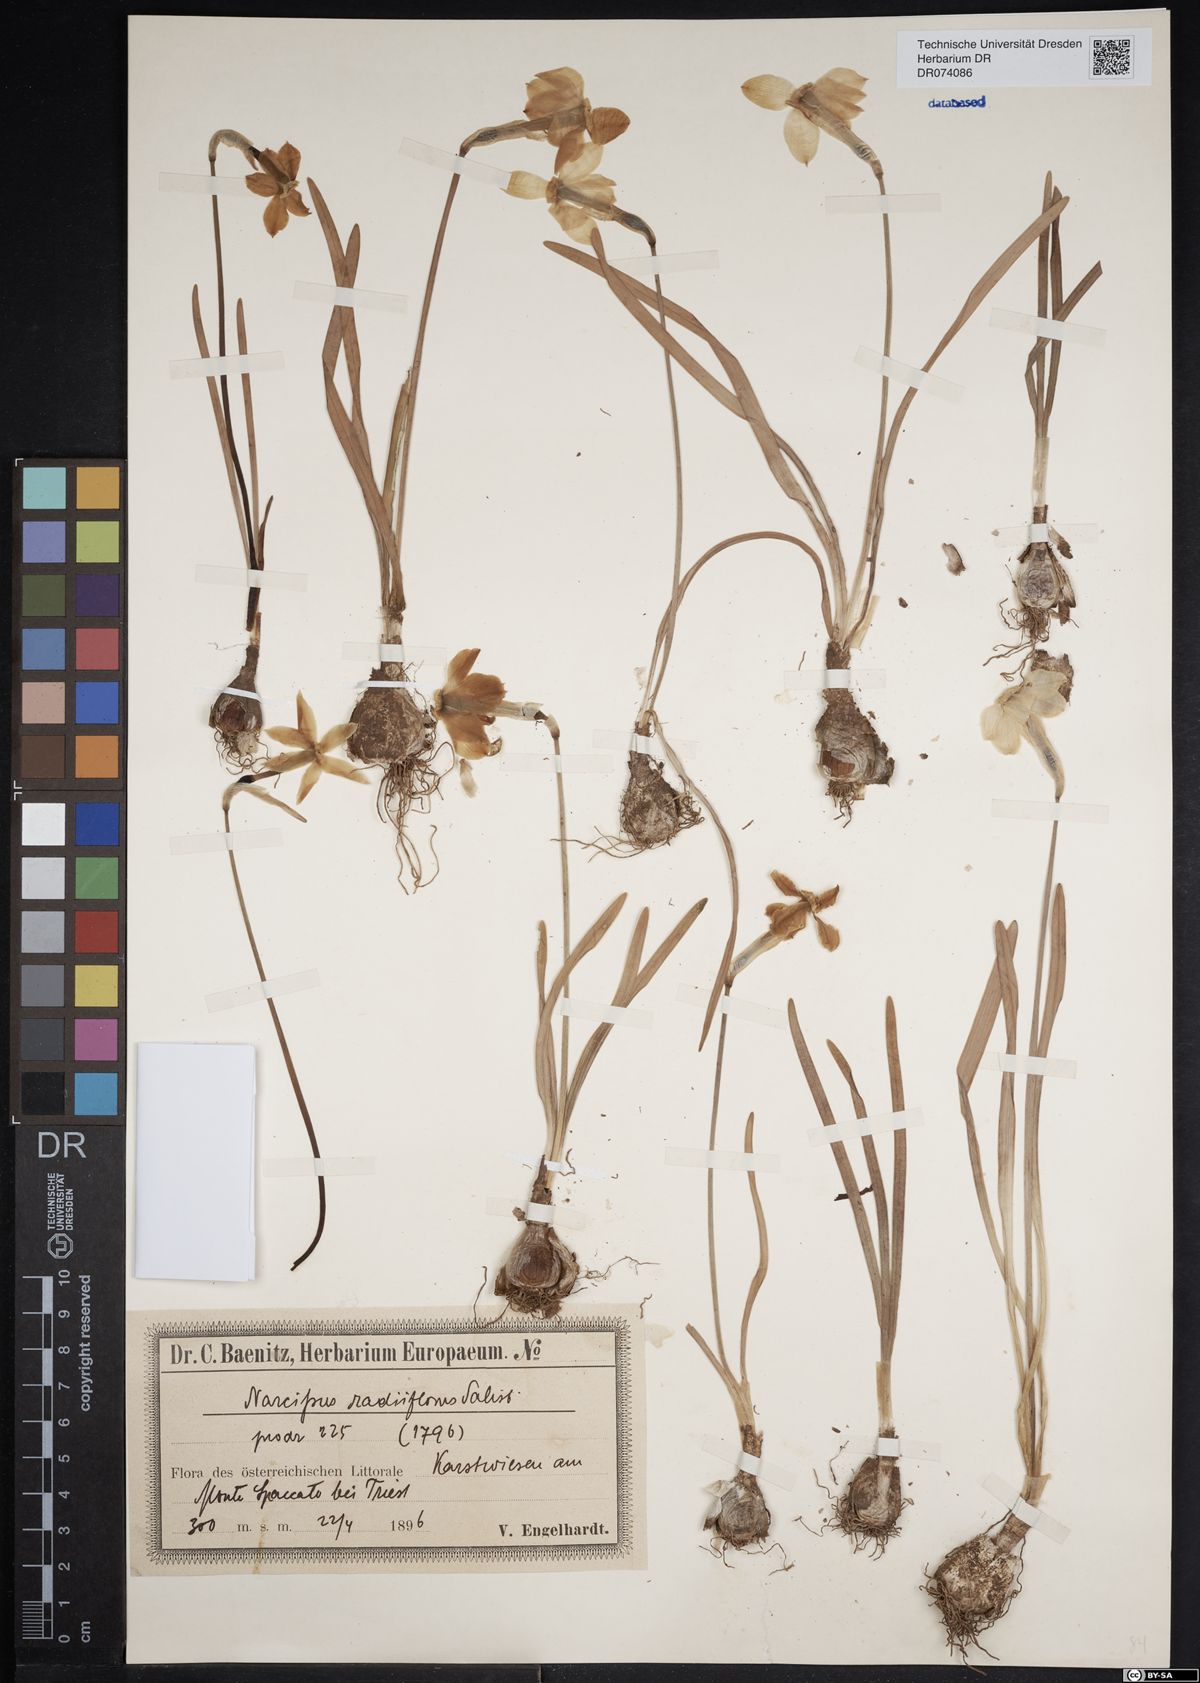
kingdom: Plantae
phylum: Tracheophyta
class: Liliopsida
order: Asparagales
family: Amaryllidaceae
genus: Narcissus
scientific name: Narcissus poeticus
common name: Pheasant's-eye daffodil
